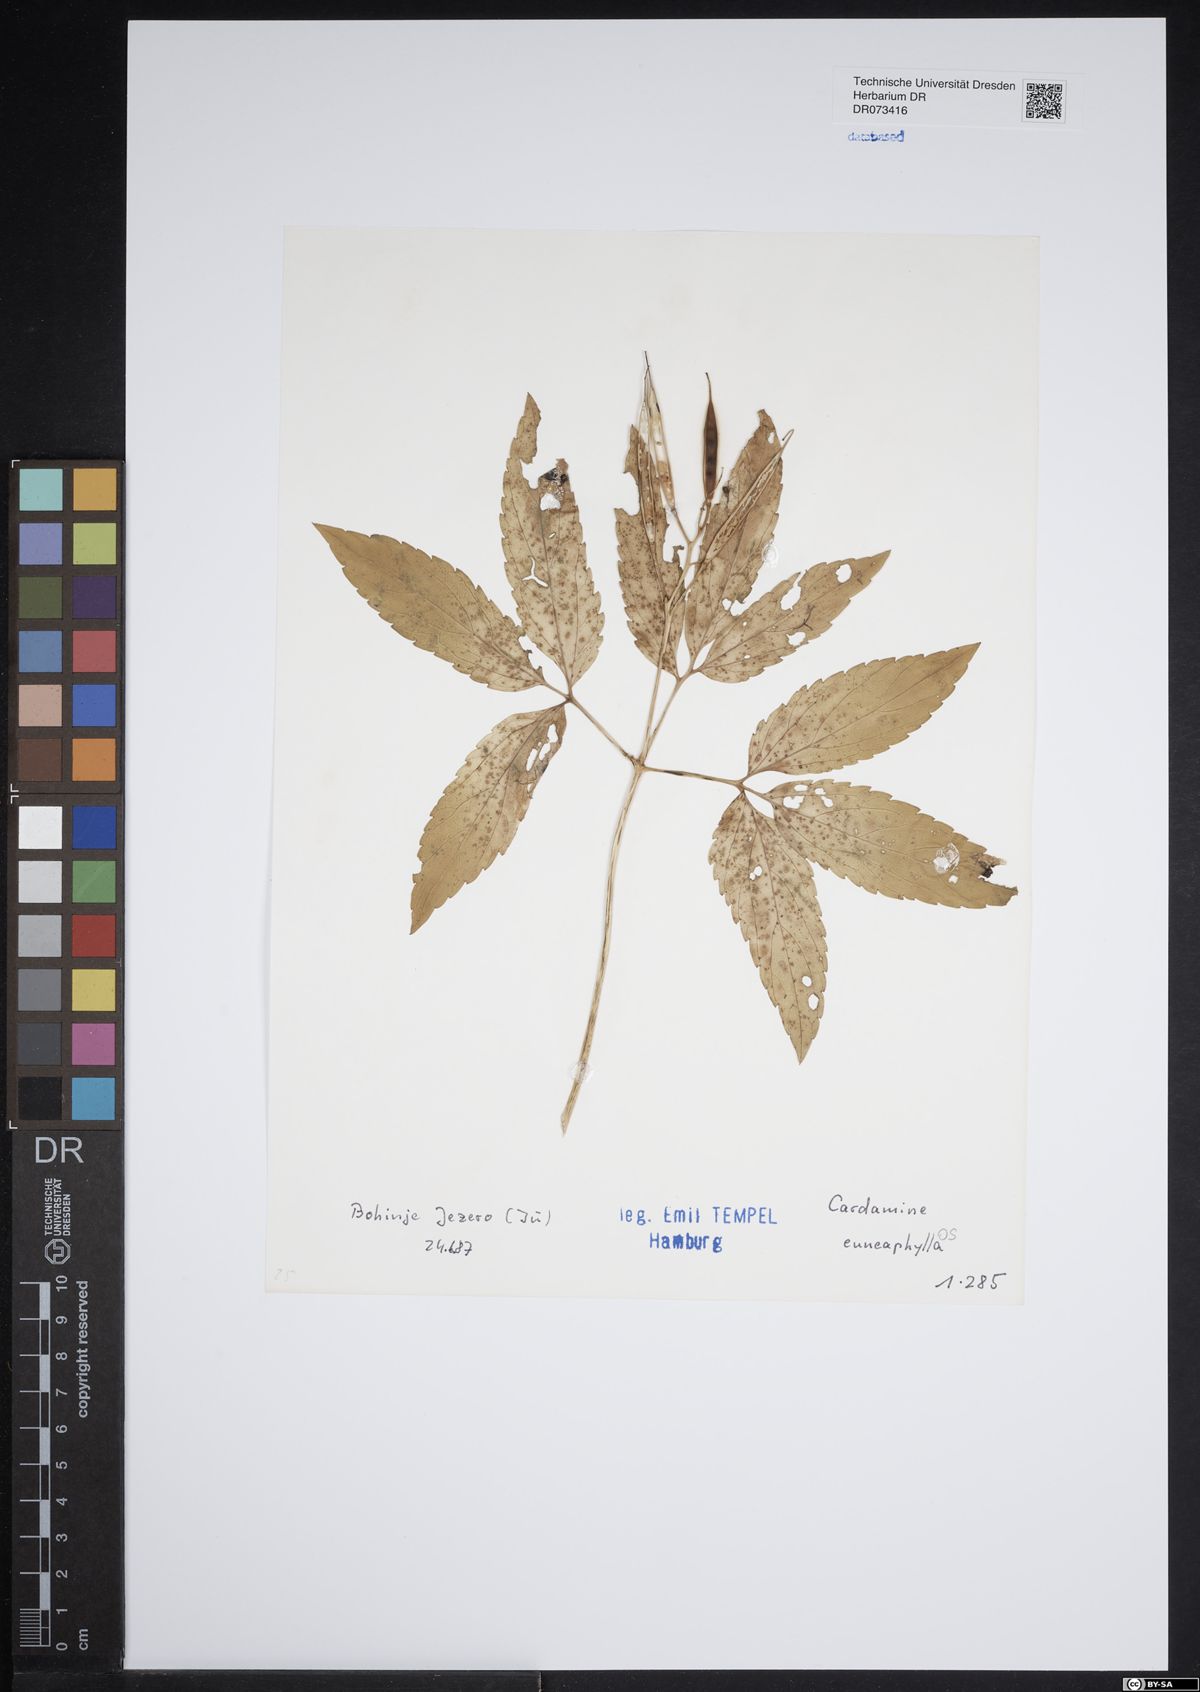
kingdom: Plantae
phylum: Tracheophyta
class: Magnoliopsida
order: Brassicales
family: Brassicaceae
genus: Cardamine
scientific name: Cardamine enneaphyllos
